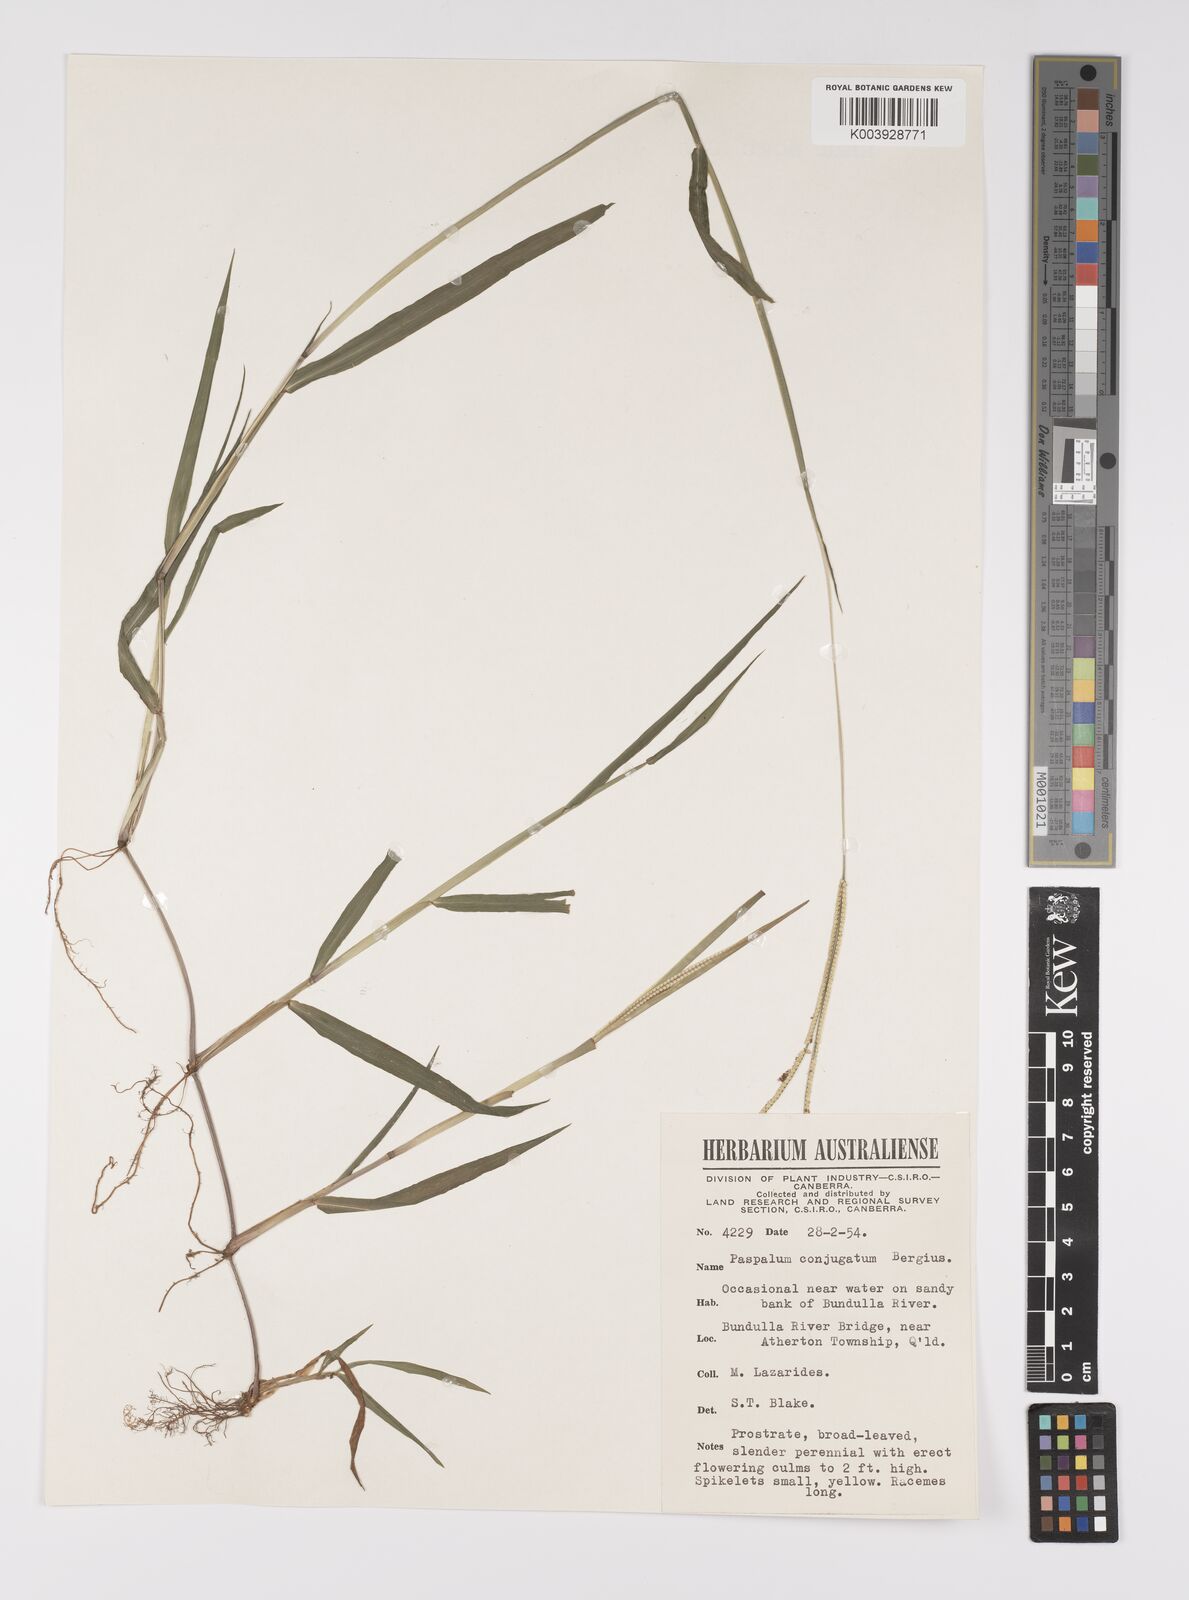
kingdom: Plantae
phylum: Tracheophyta
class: Liliopsida
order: Poales
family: Poaceae
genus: Paspalum
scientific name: Paspalum conjugatum
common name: Hilograss
